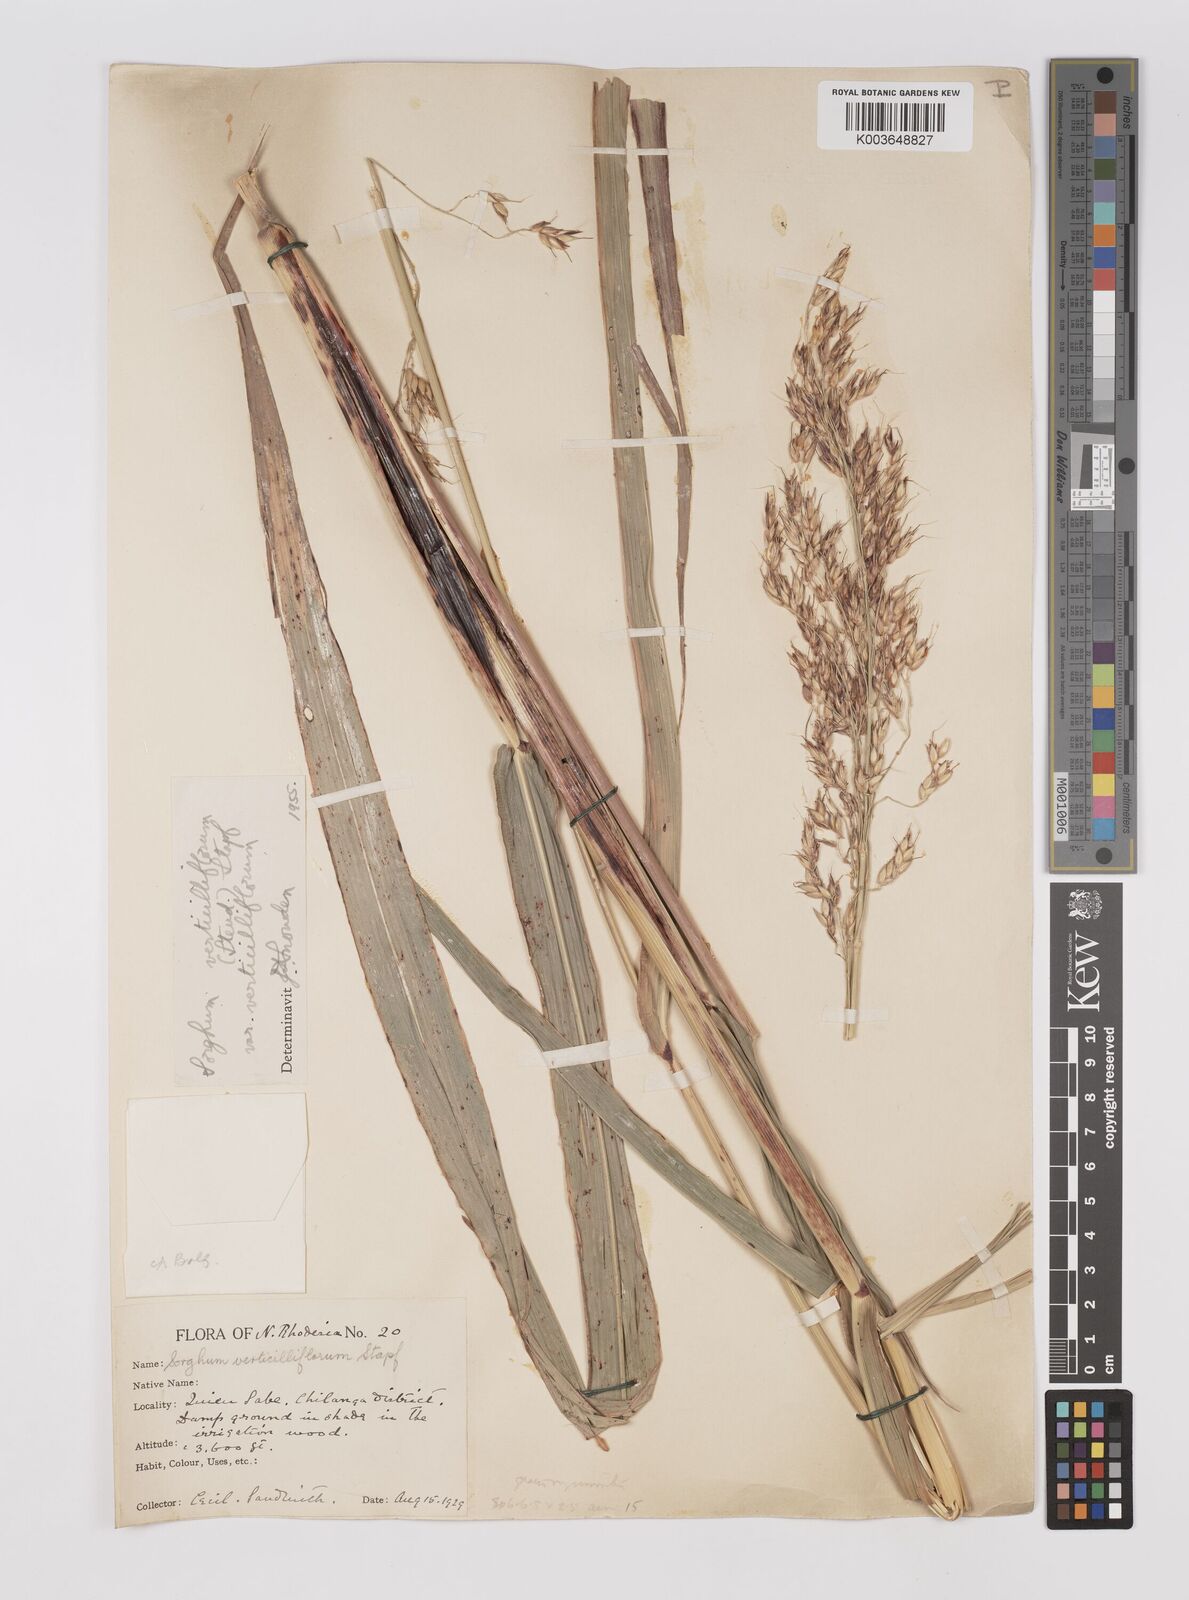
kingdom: Plantae
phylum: Tracheophyta
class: Liliopsida
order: Poales
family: Poaceae
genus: Sorghum
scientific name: Sorghum arundinaceum
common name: Sorghum
